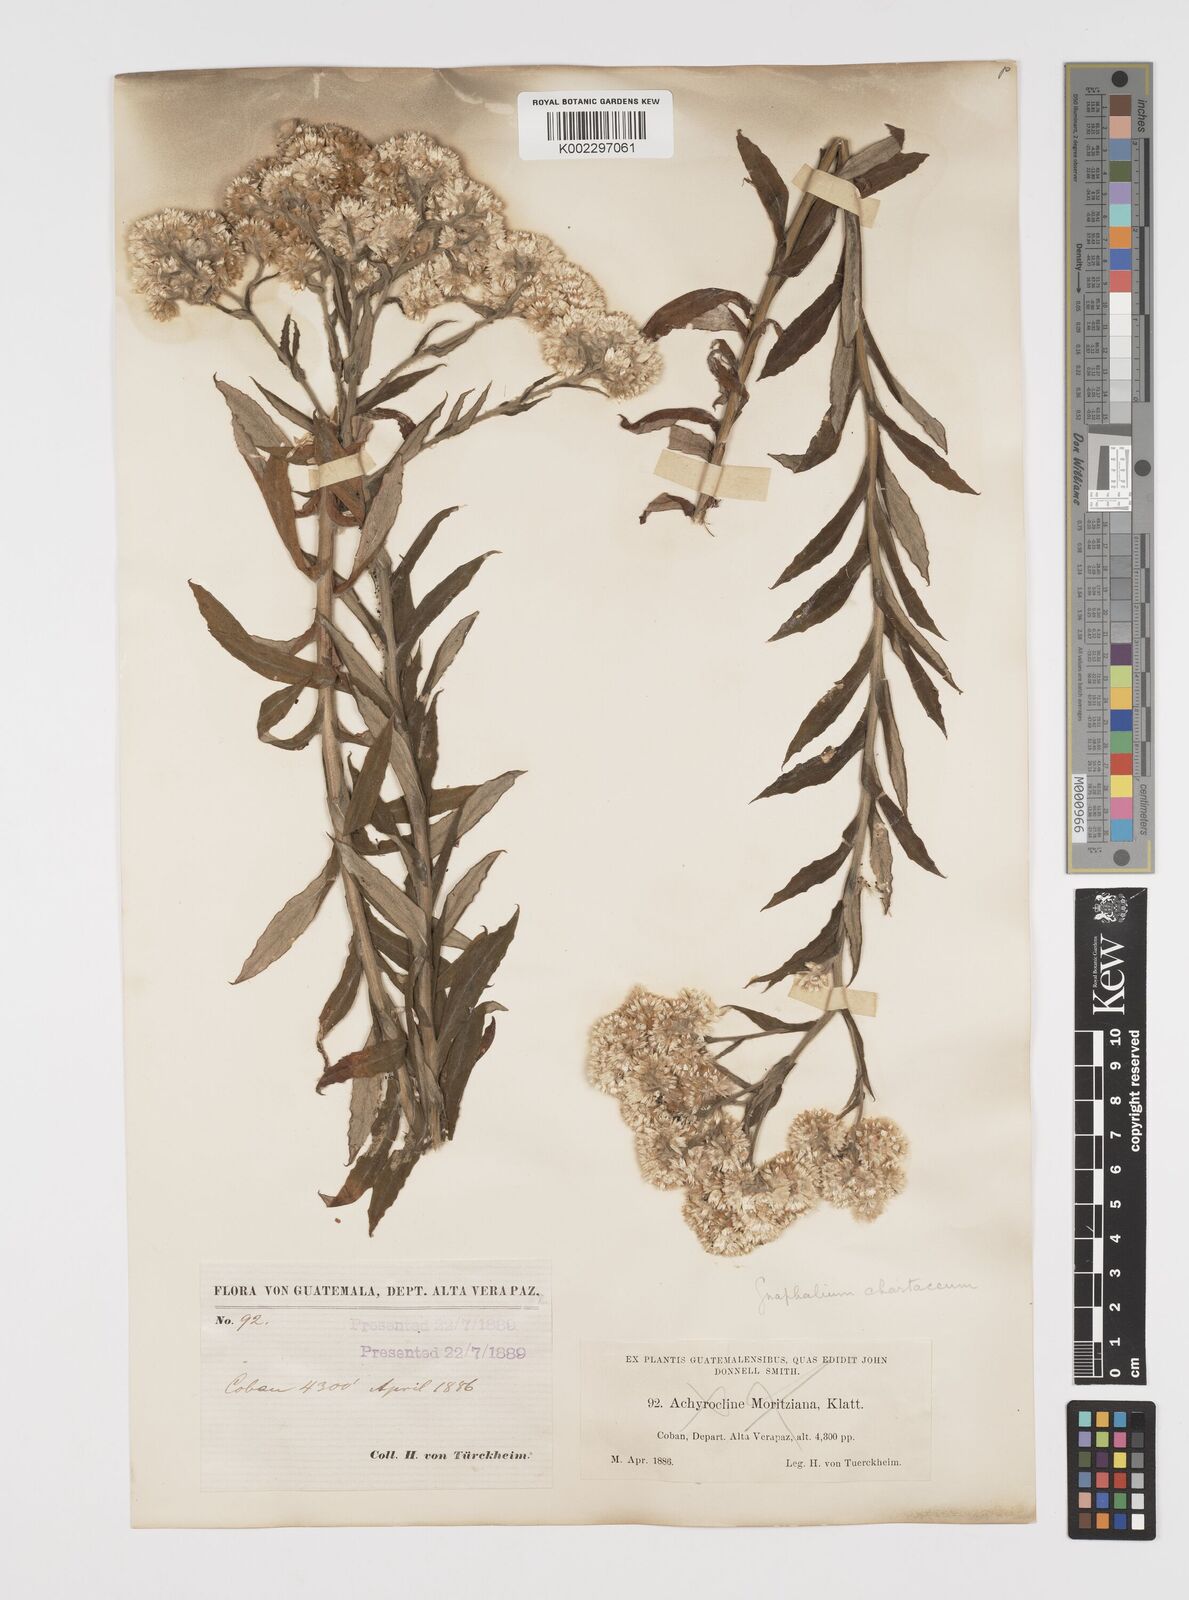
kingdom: Plantae
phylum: Tracheophyta
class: Magnoliopsida
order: Asterales
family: Asteraceae
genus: Pseudognaphalium
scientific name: Pseudognaphalium chartaceum
